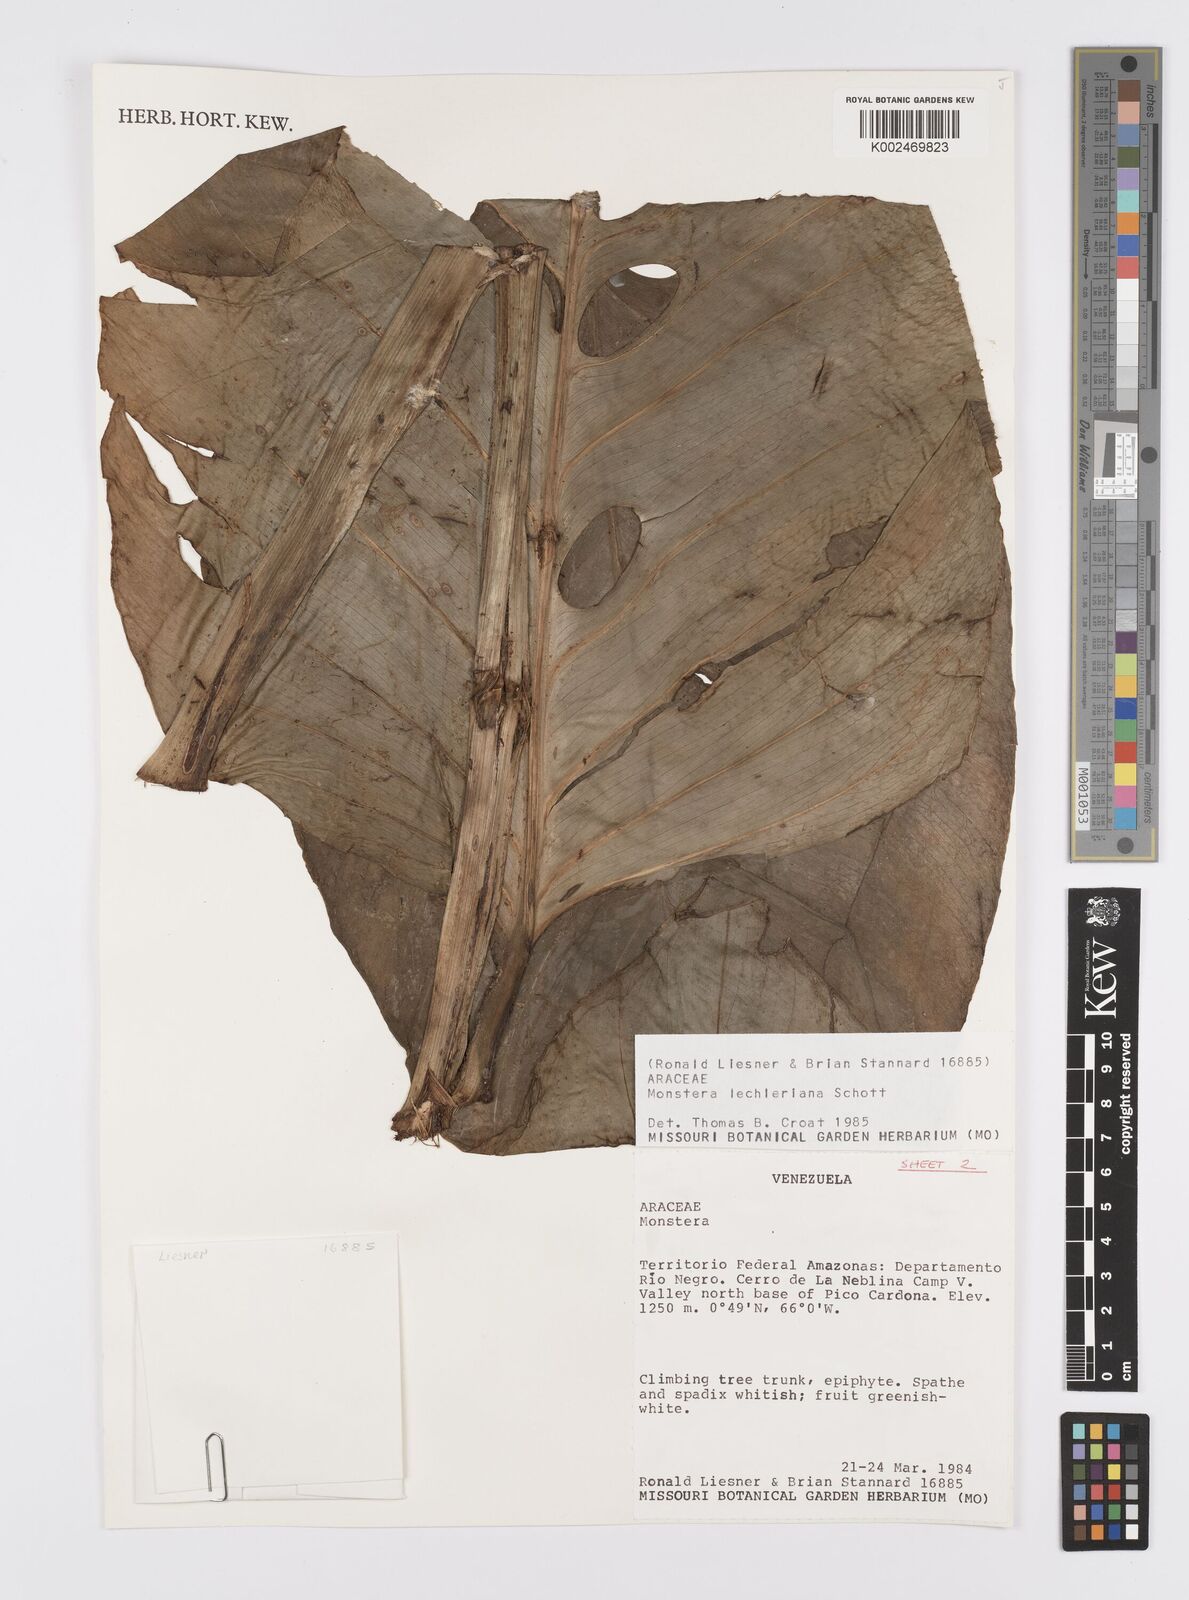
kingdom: Plantae
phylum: Tracheophyta
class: Liliopsida
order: Alismatales
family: Araceae
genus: Monstera
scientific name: Monstera lechleriana
